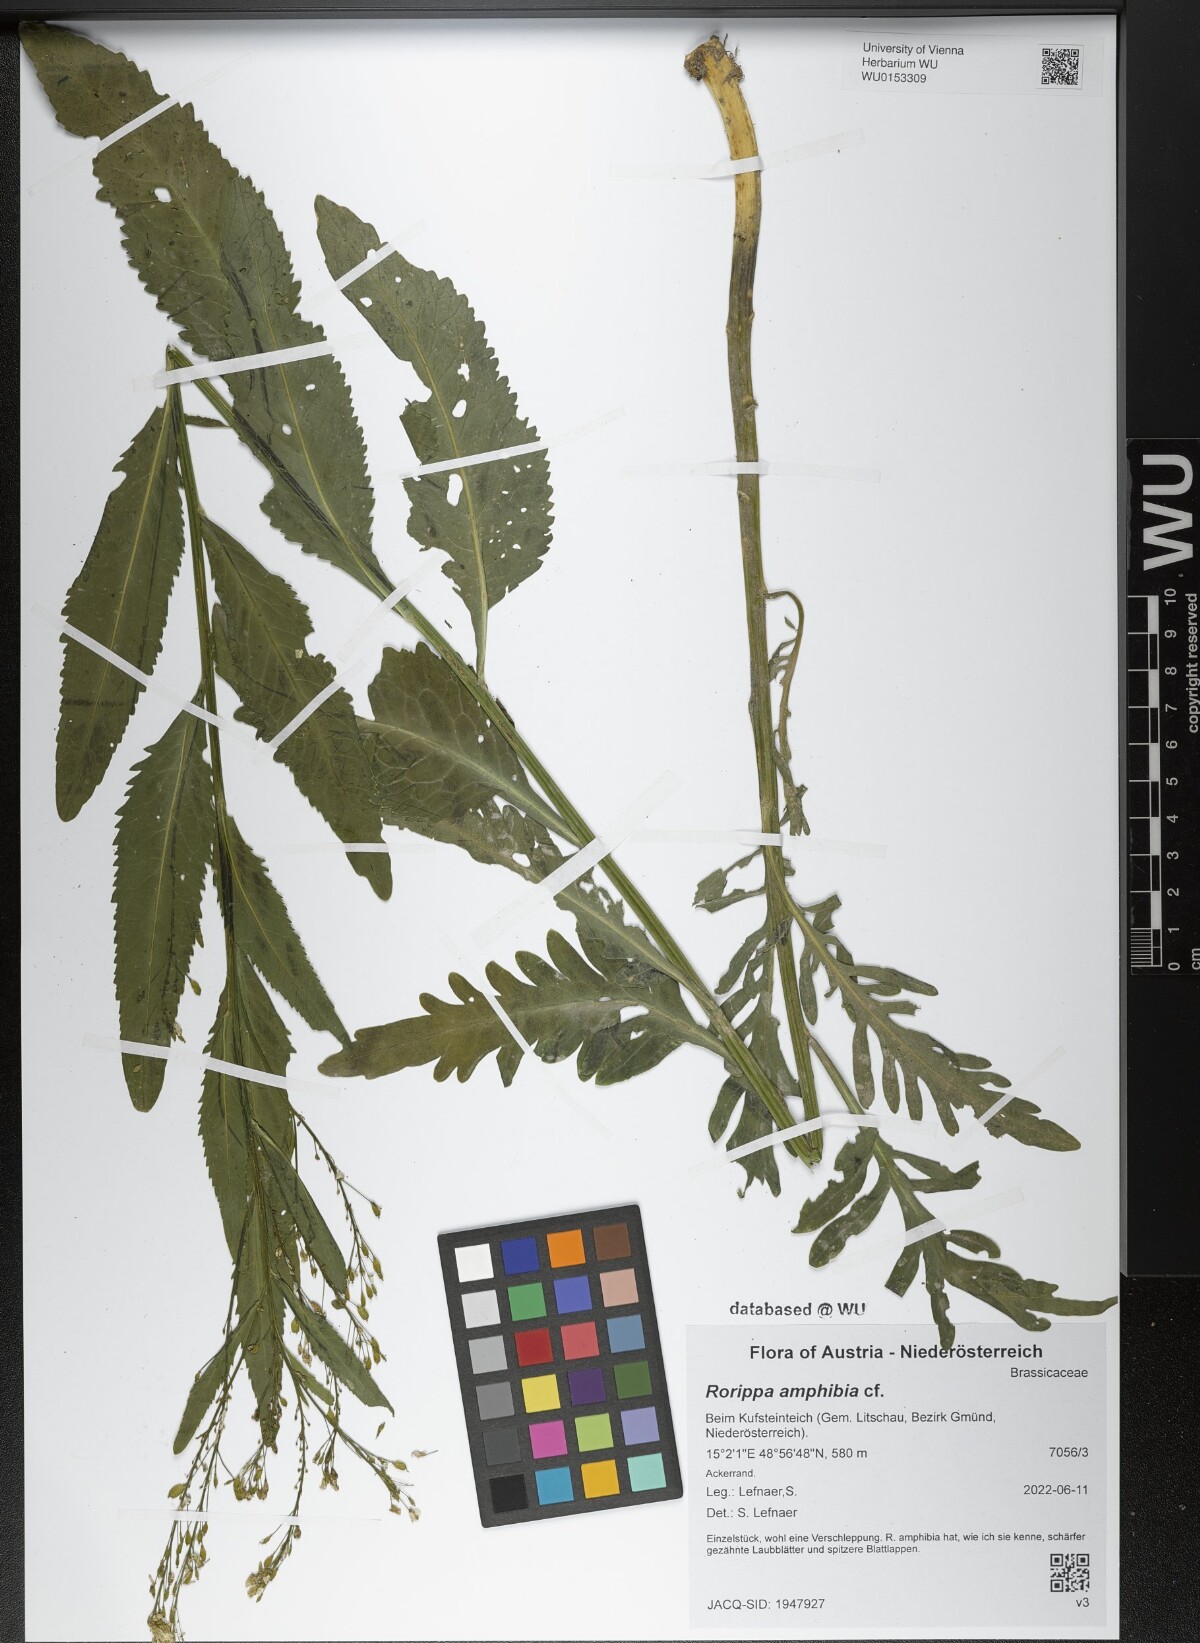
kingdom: Plantae
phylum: Tracheophyta
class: Magnoliopsida
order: Brassicales
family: Brassicaceae
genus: Rorippa
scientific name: Rorippa amphibia
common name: Great yellow-cress
